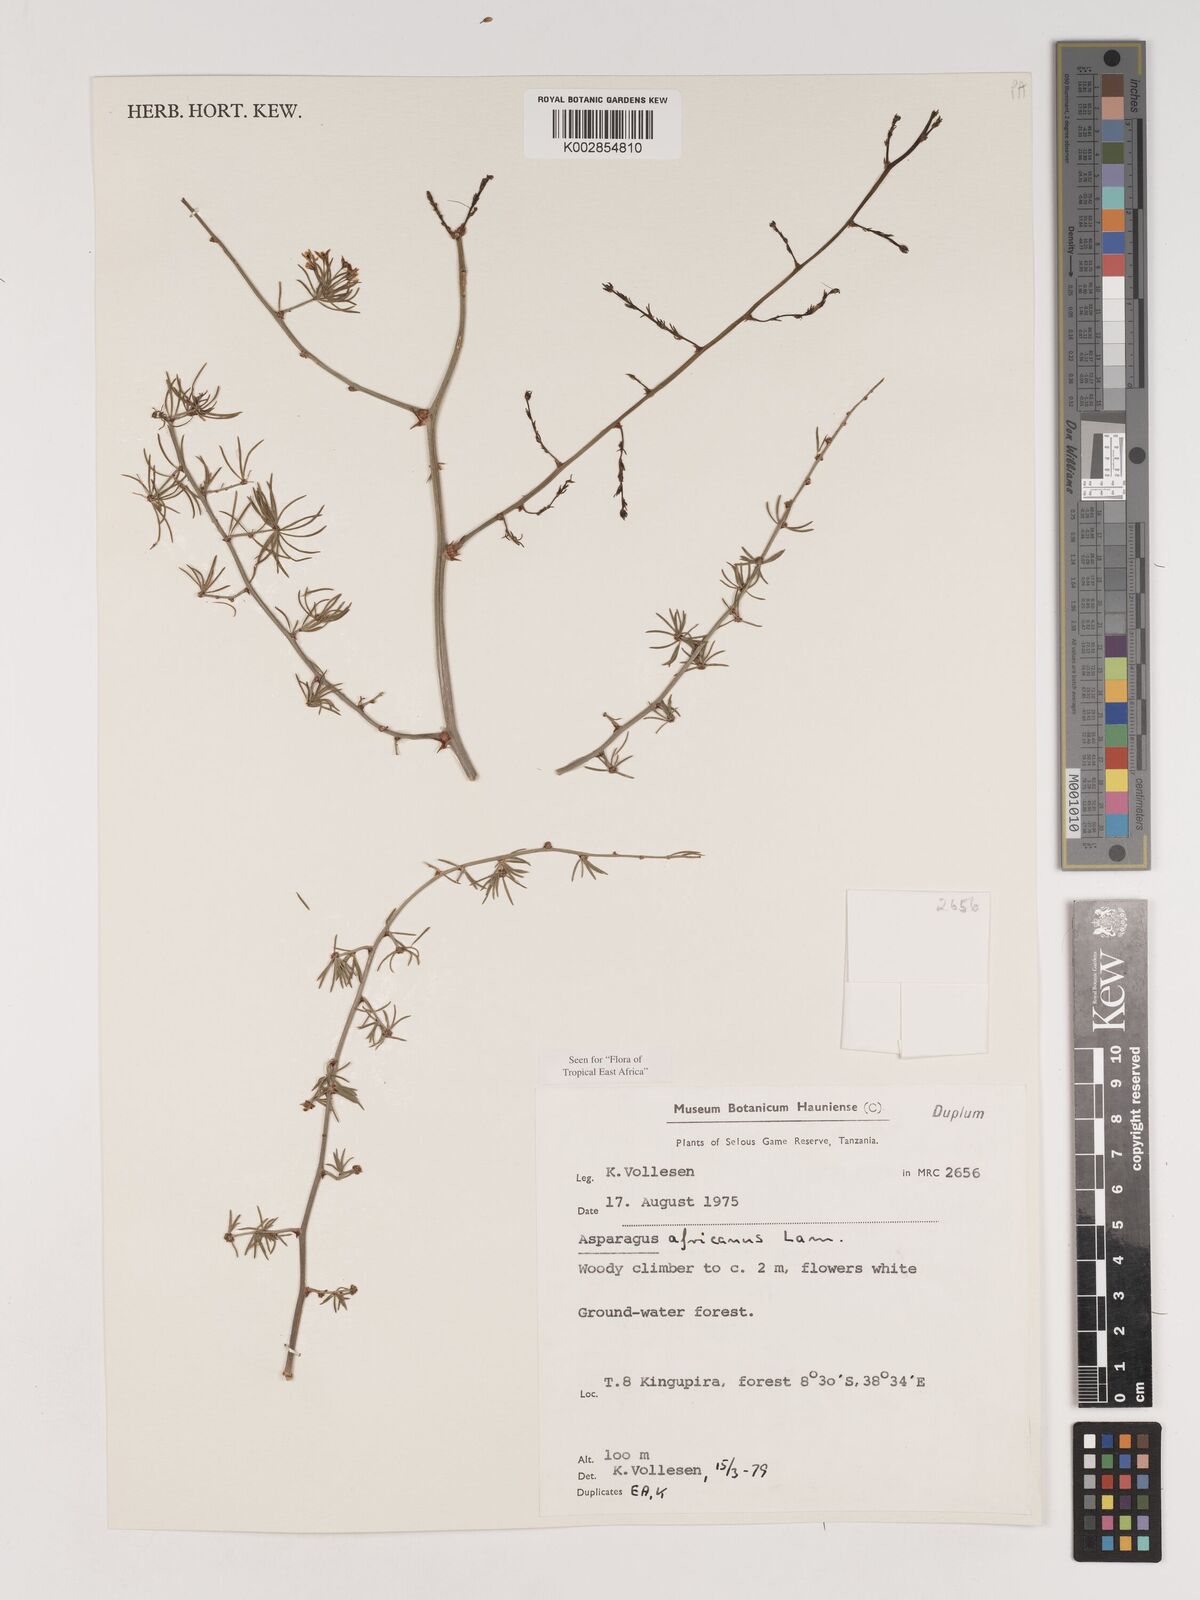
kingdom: Plantae
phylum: Tracheophyta
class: Liliopsida
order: Asparagales
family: Asparagaceae
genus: Asparagus
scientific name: Asparagus africanus
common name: Asparagus-fern
